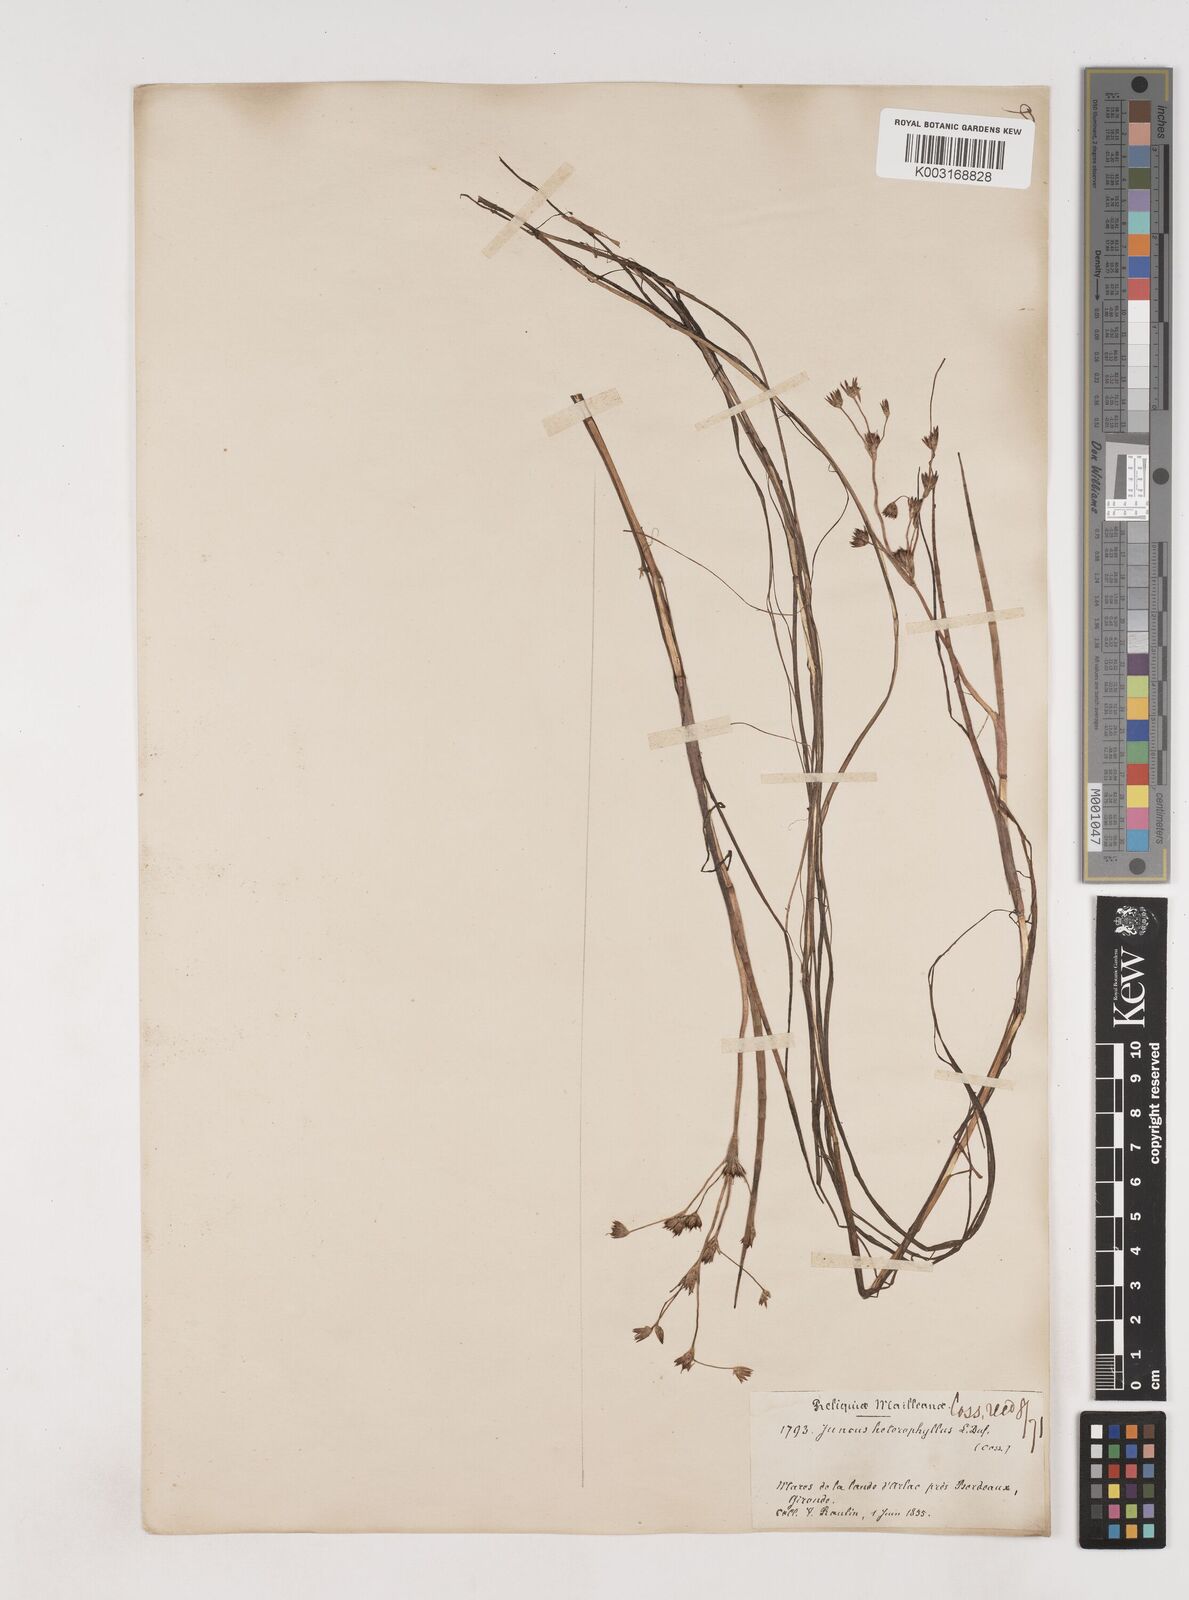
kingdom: Plantae
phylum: Tracheophyta
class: Liliopsida
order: Poales
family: Juncaceae
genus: Juncus
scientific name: Juncus heterophyllus
